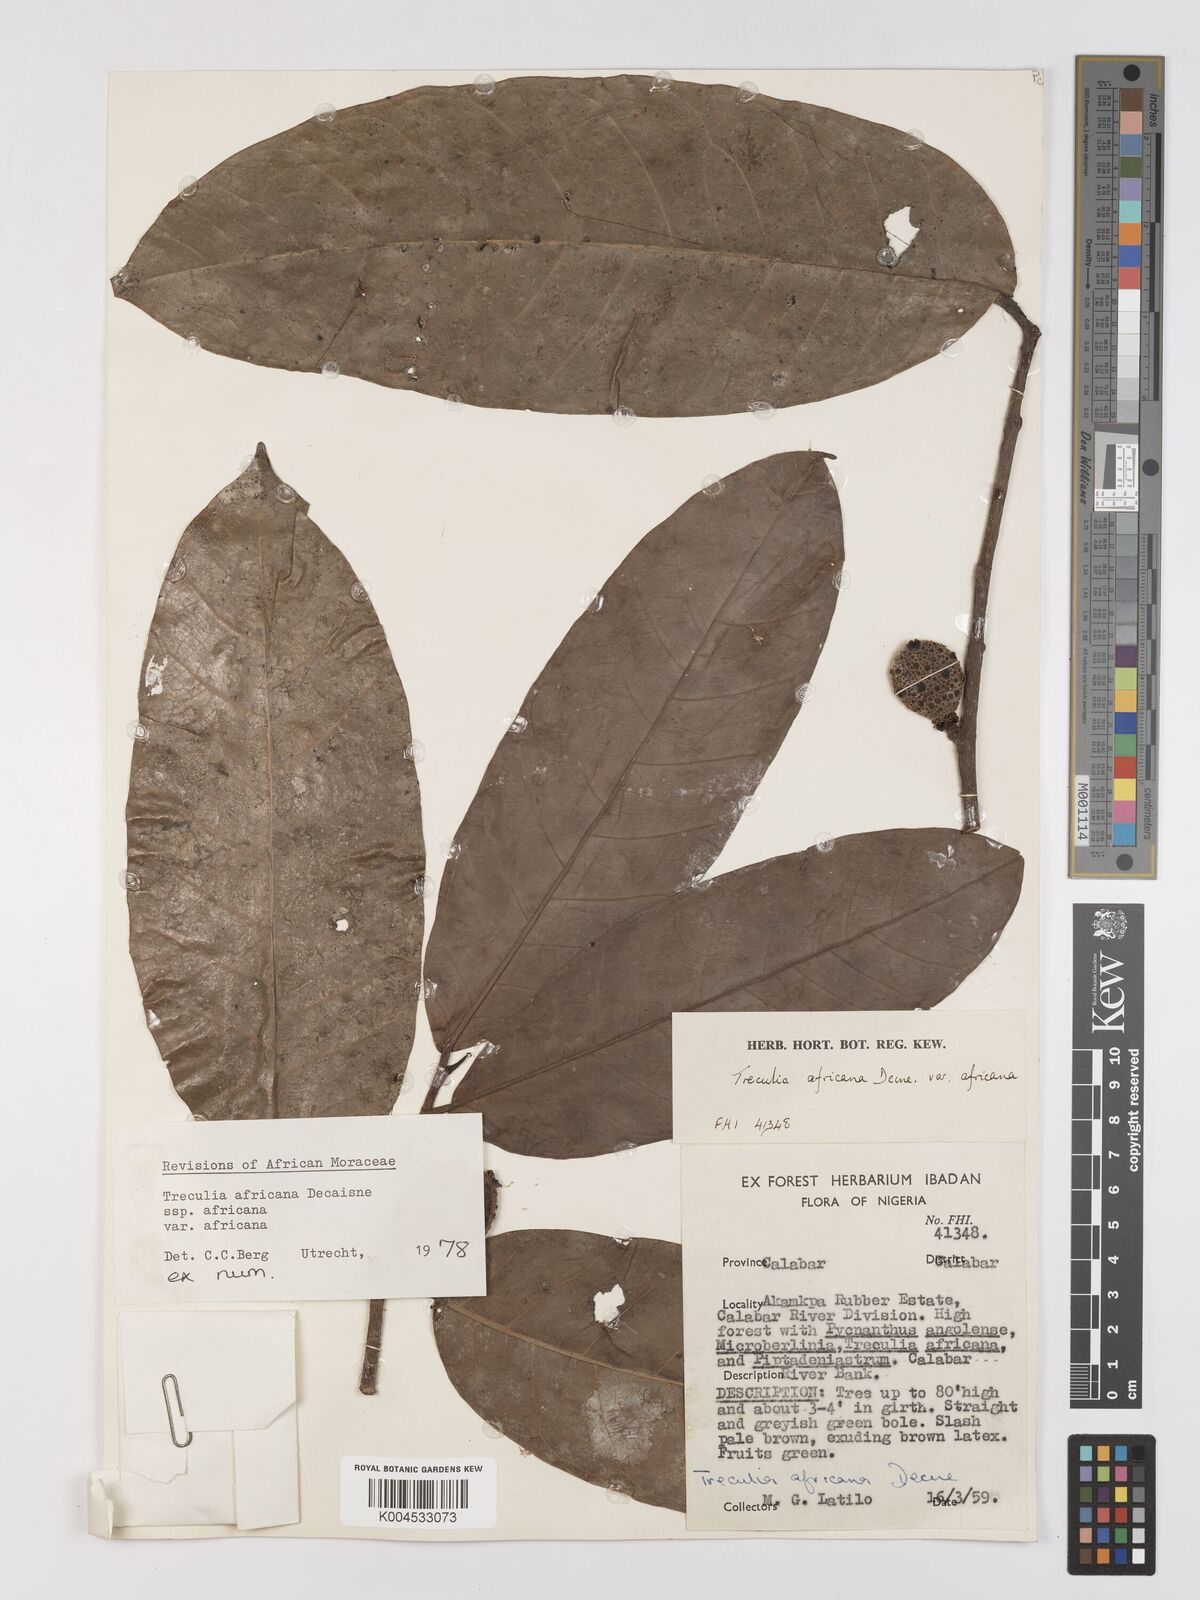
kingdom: Plantae
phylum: Tracheophyta
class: Magnoliopsida
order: Rosales
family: Moraceae
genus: Treculia
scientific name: Treculia africana
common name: African breadfruit
